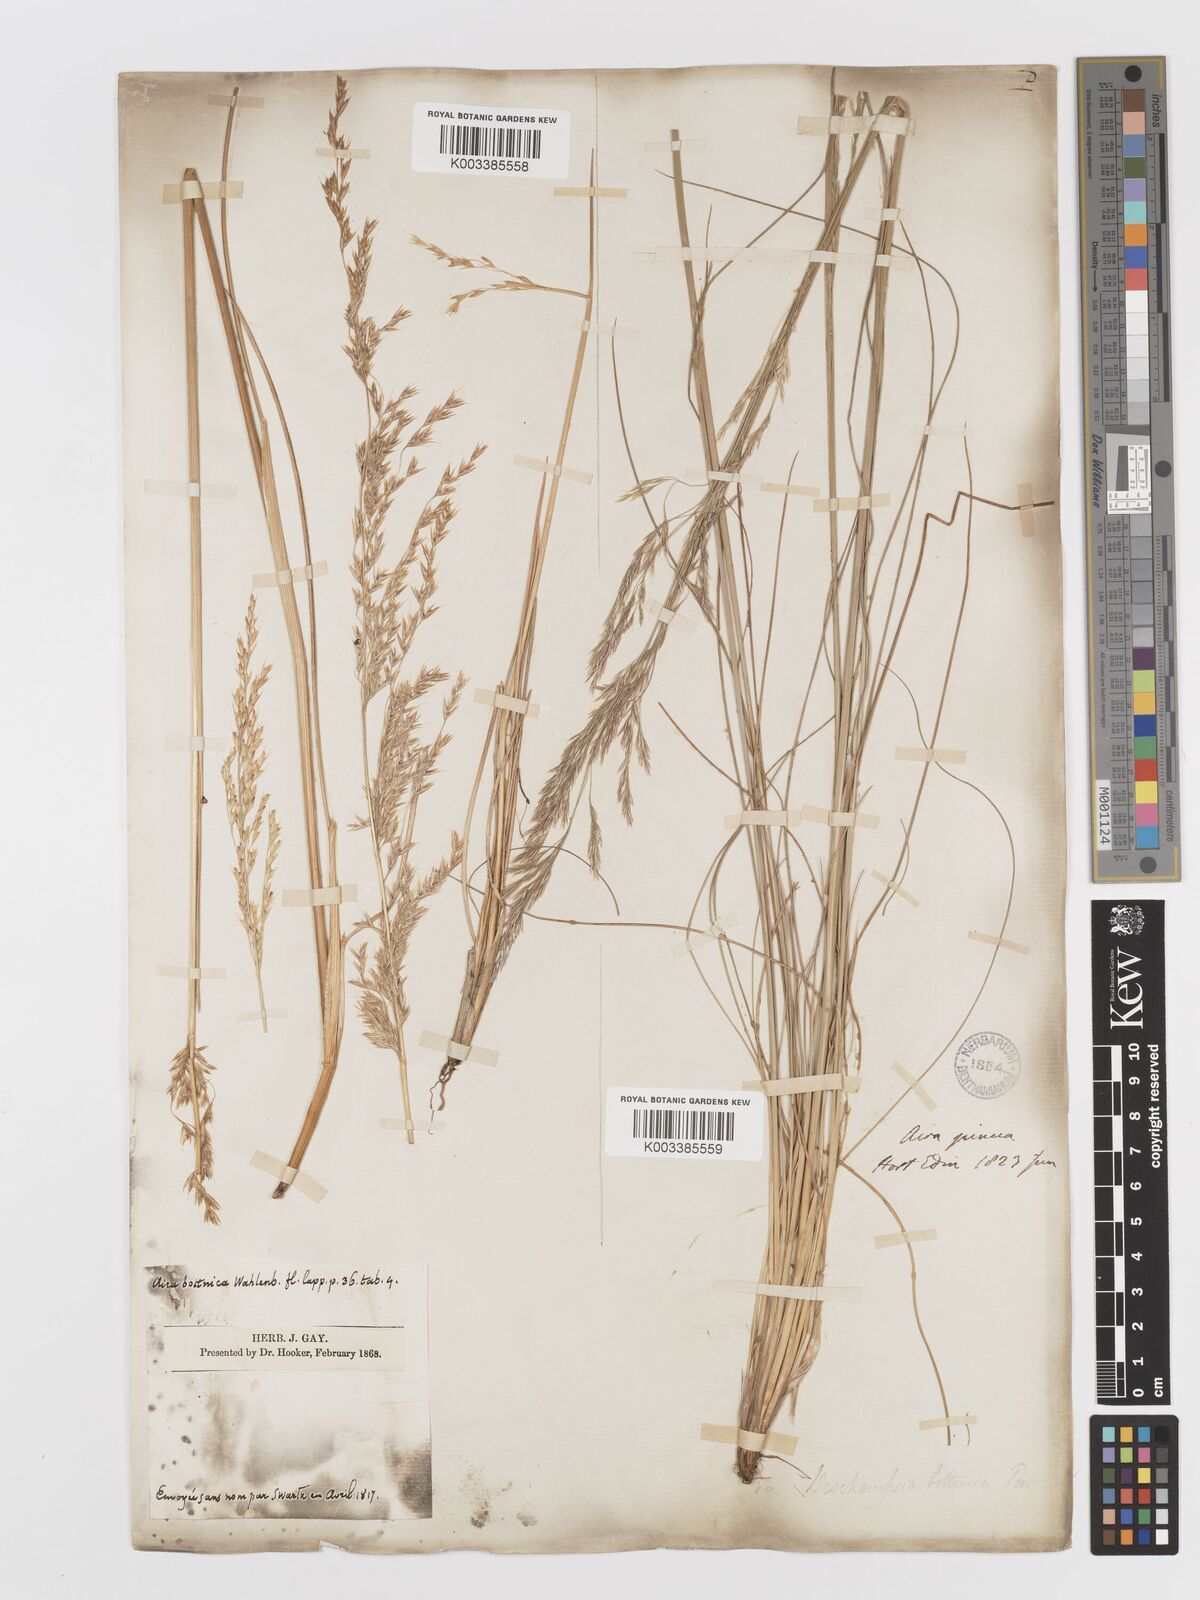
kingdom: Plantae
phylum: Tracheophyta
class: Liliopsida
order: Poales
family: Poaceae
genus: Deschampsia
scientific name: Deschampsia cespitosa
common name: Tufted hair-grass
